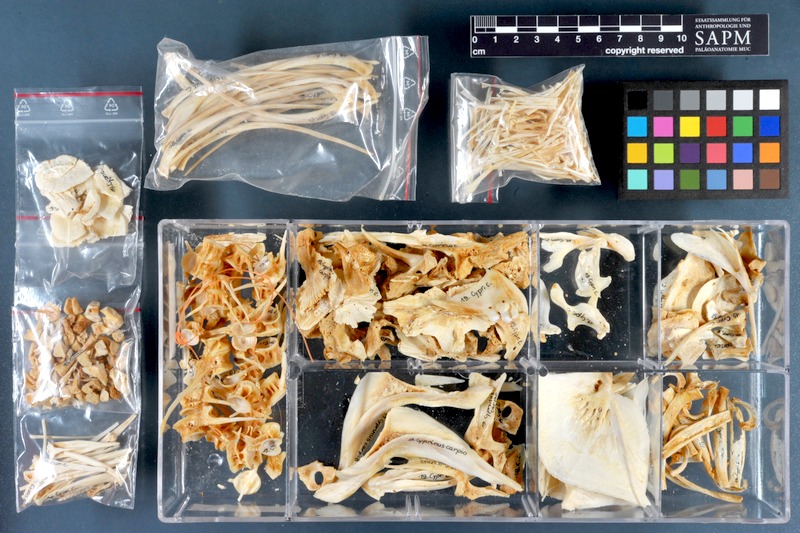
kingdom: Animalia
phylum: Chordata
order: Cypriniformes
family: Cyprinidae
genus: Cyprinus
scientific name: Cyprinus carpio
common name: Common carp
